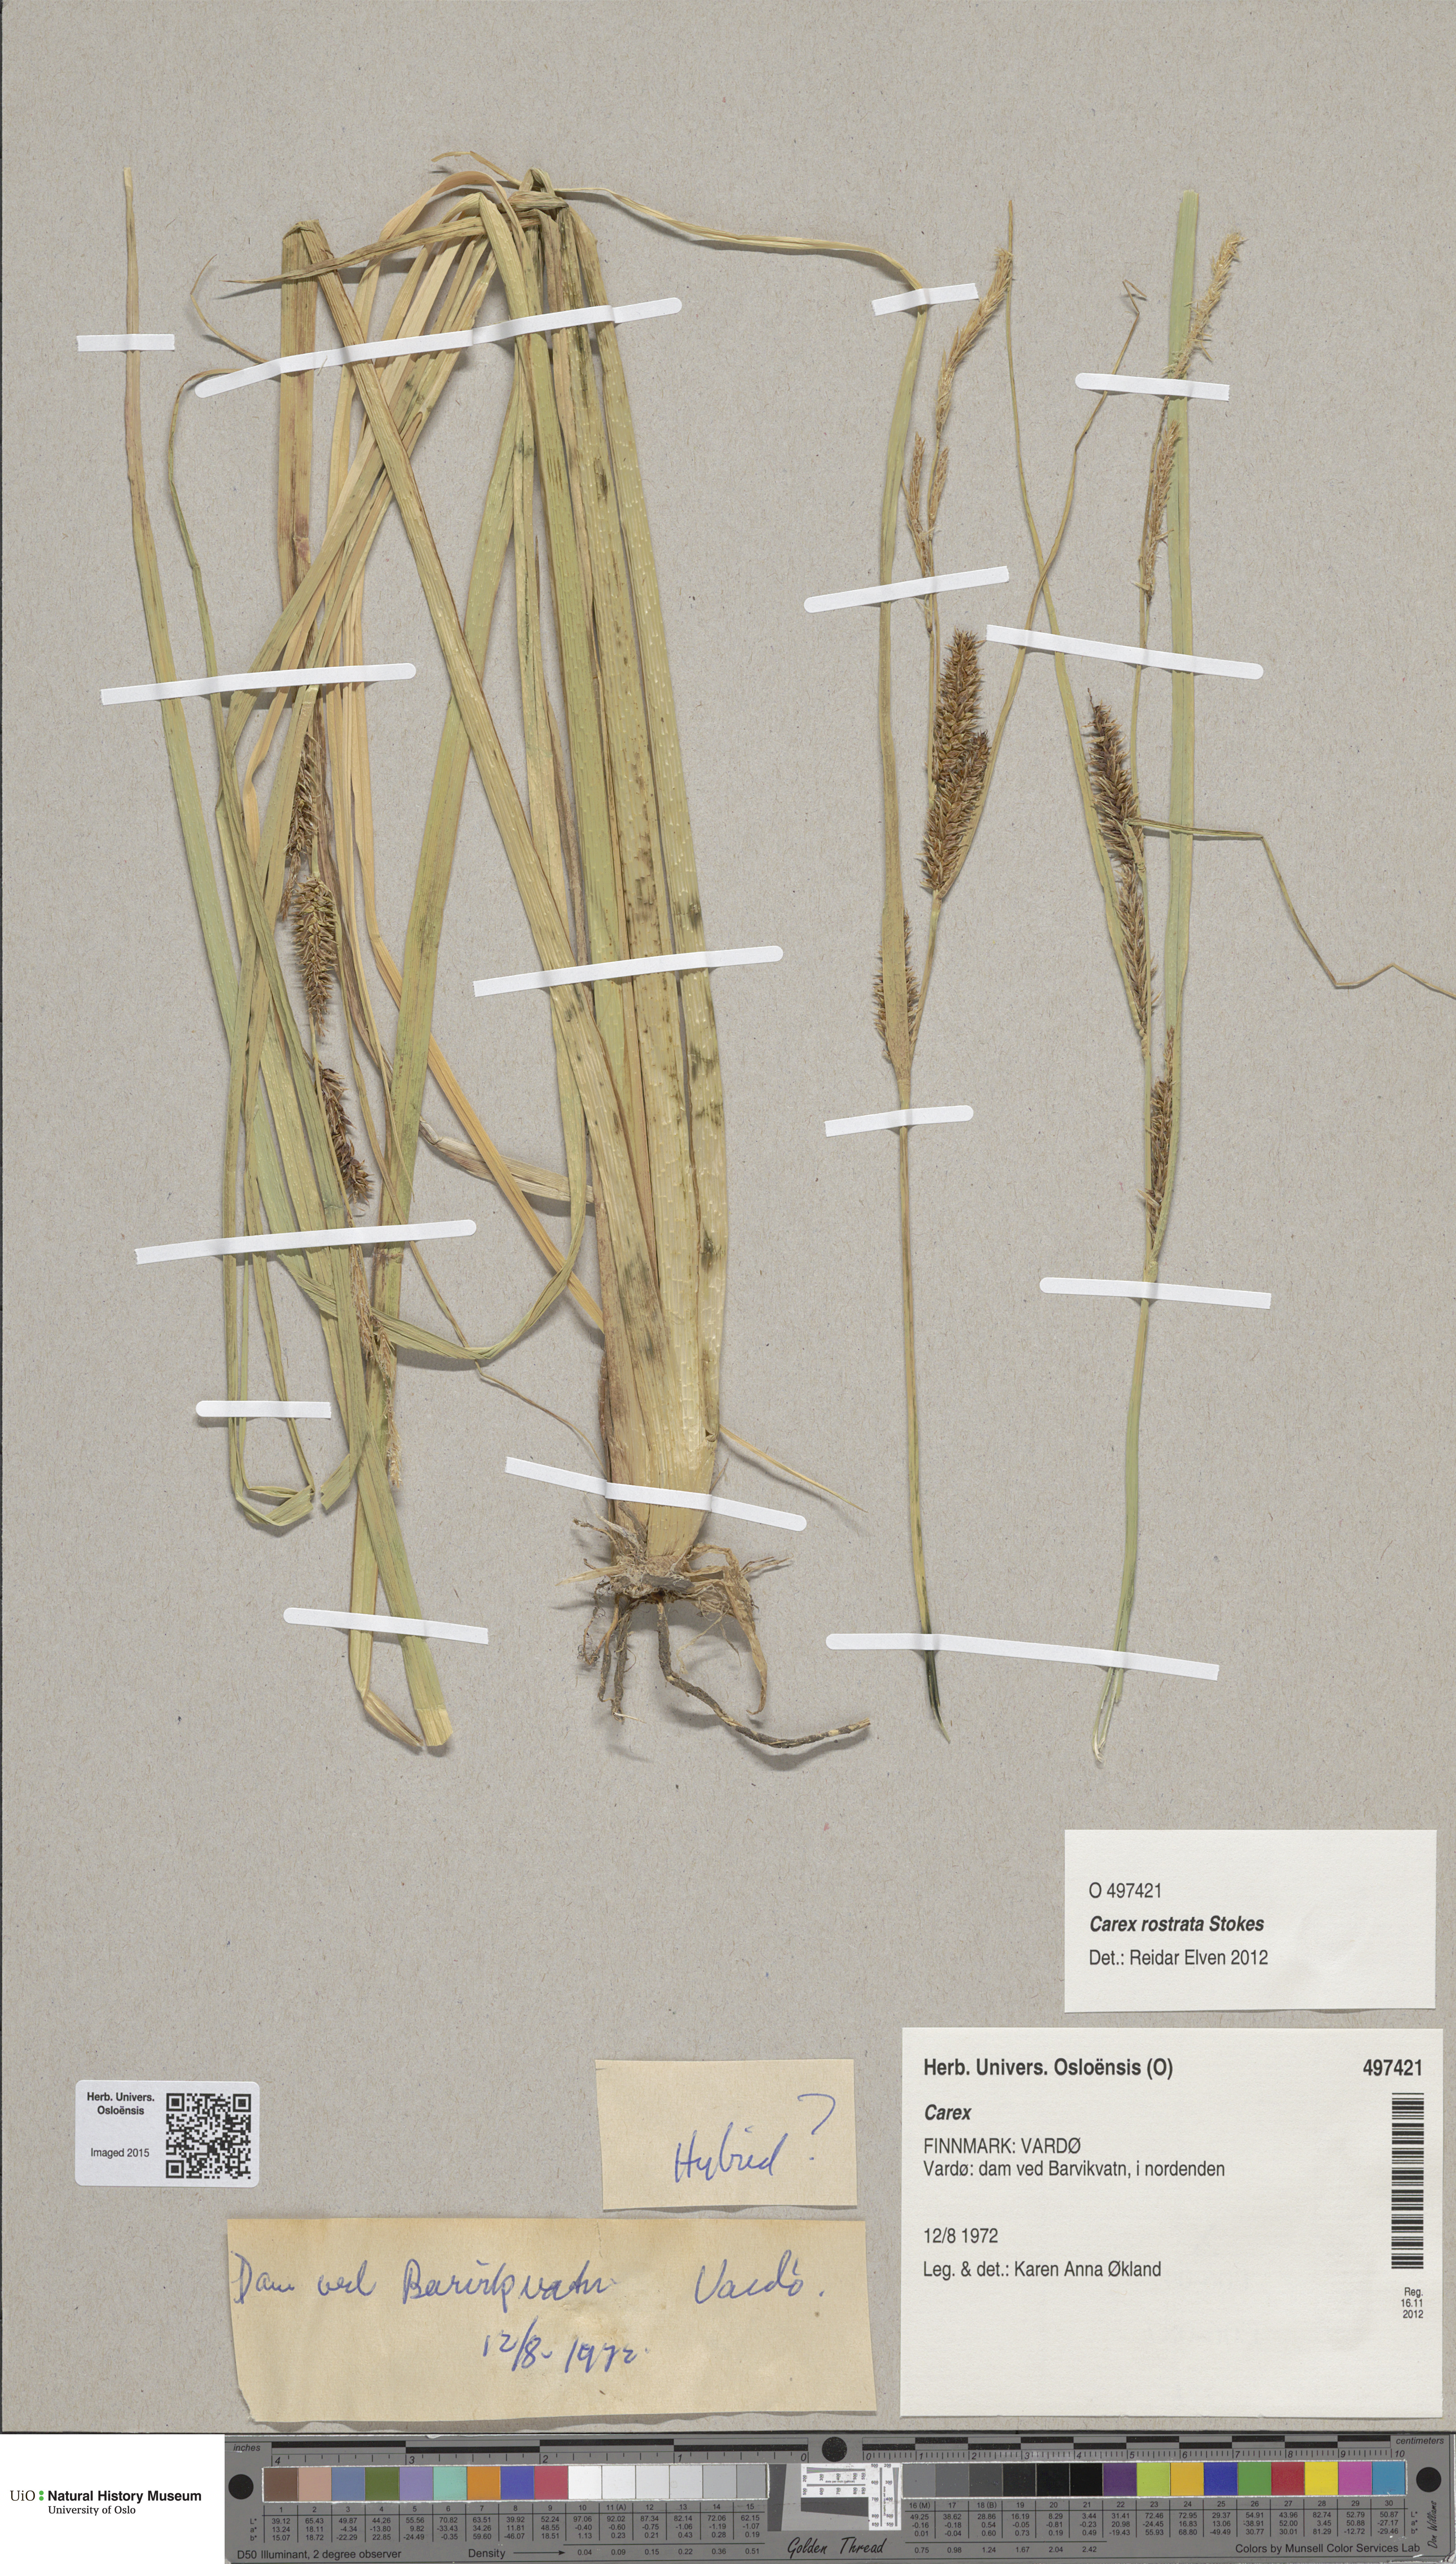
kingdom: Plantae
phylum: Tracheophyta
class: Liliopsida
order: Poales
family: Cyperaceae
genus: Carex
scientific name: Carex
